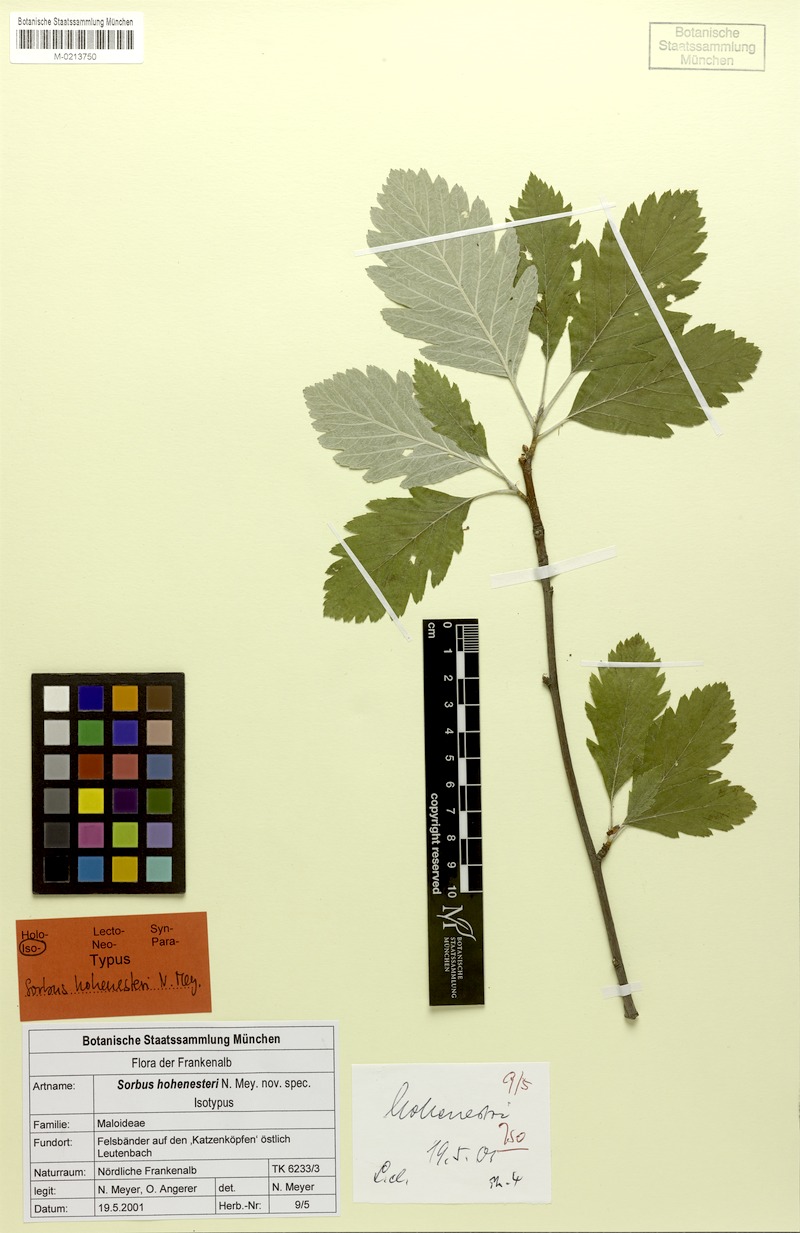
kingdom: Plantae
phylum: Tracheophyta
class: Magnoliopsida
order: Rosales
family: Rosaceae
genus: Hedlundia
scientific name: Hedlundia hohenesteri
